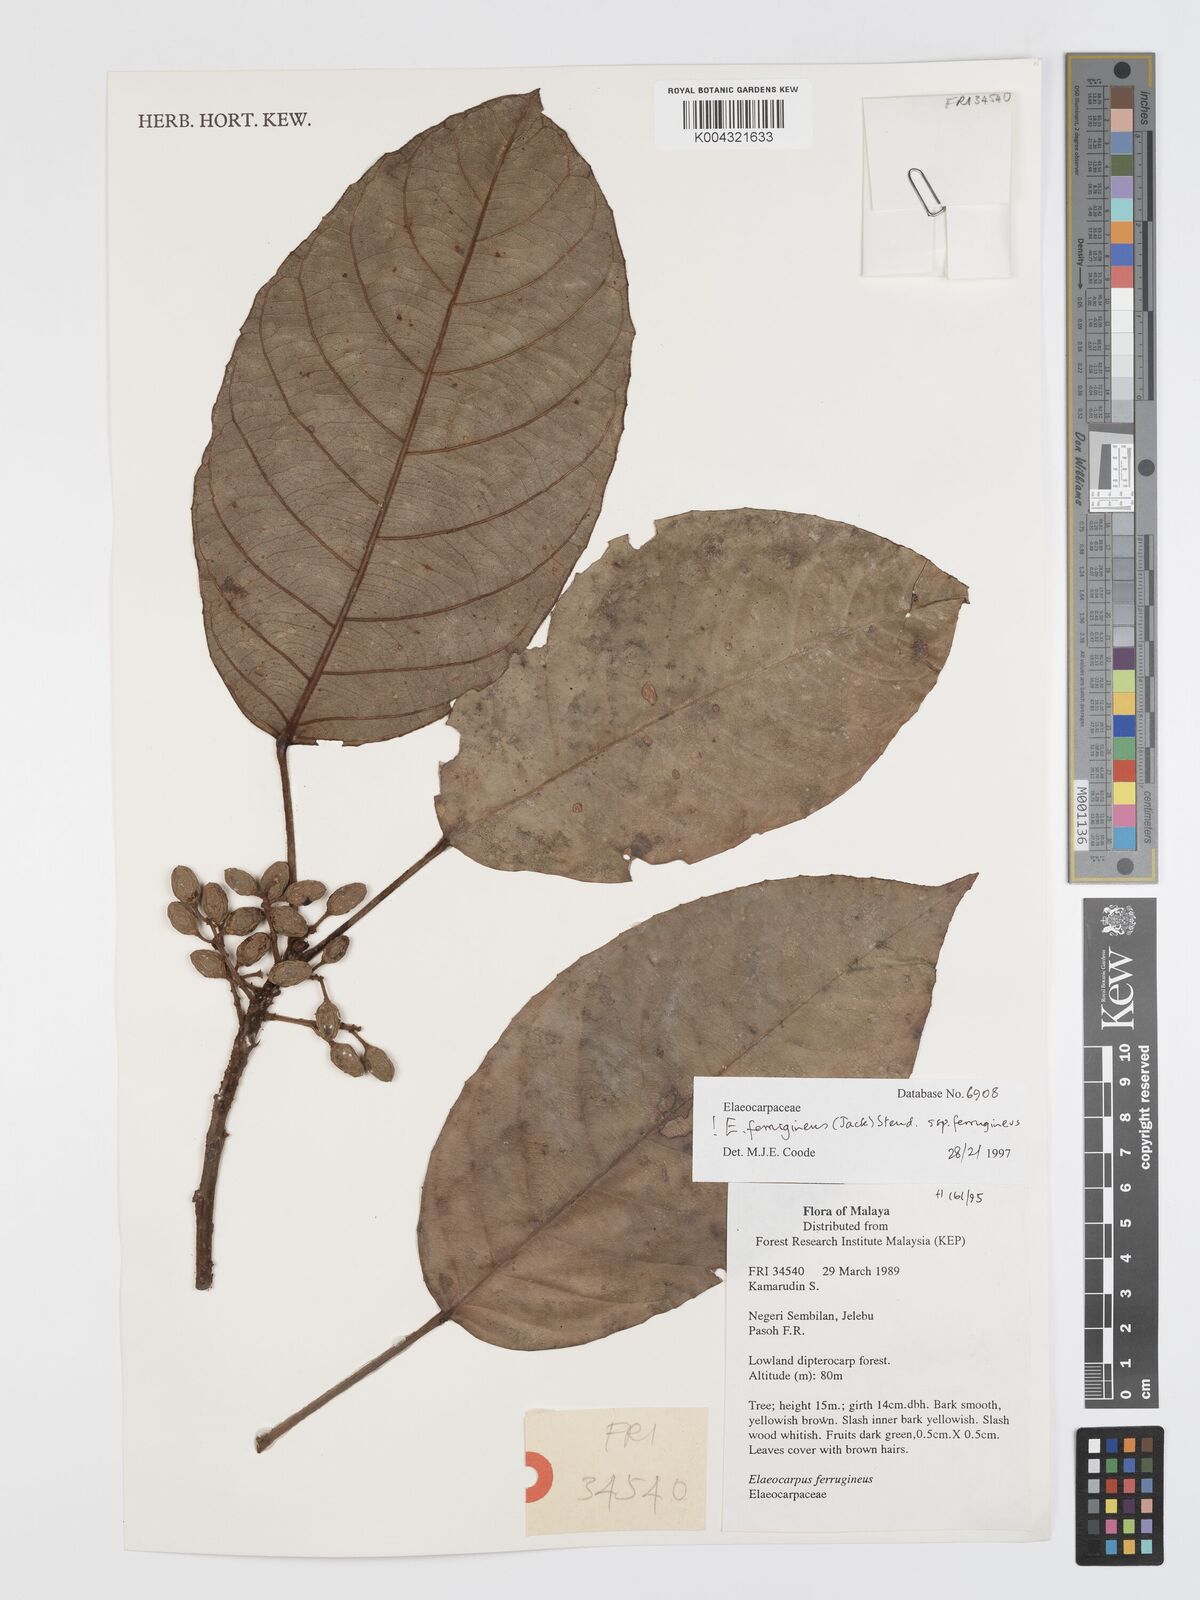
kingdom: Plantae
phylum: Tracheophyta
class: Magnoliopsida
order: Oxalidales
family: Elaeocarpaceae
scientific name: Elaeocarpaceae
